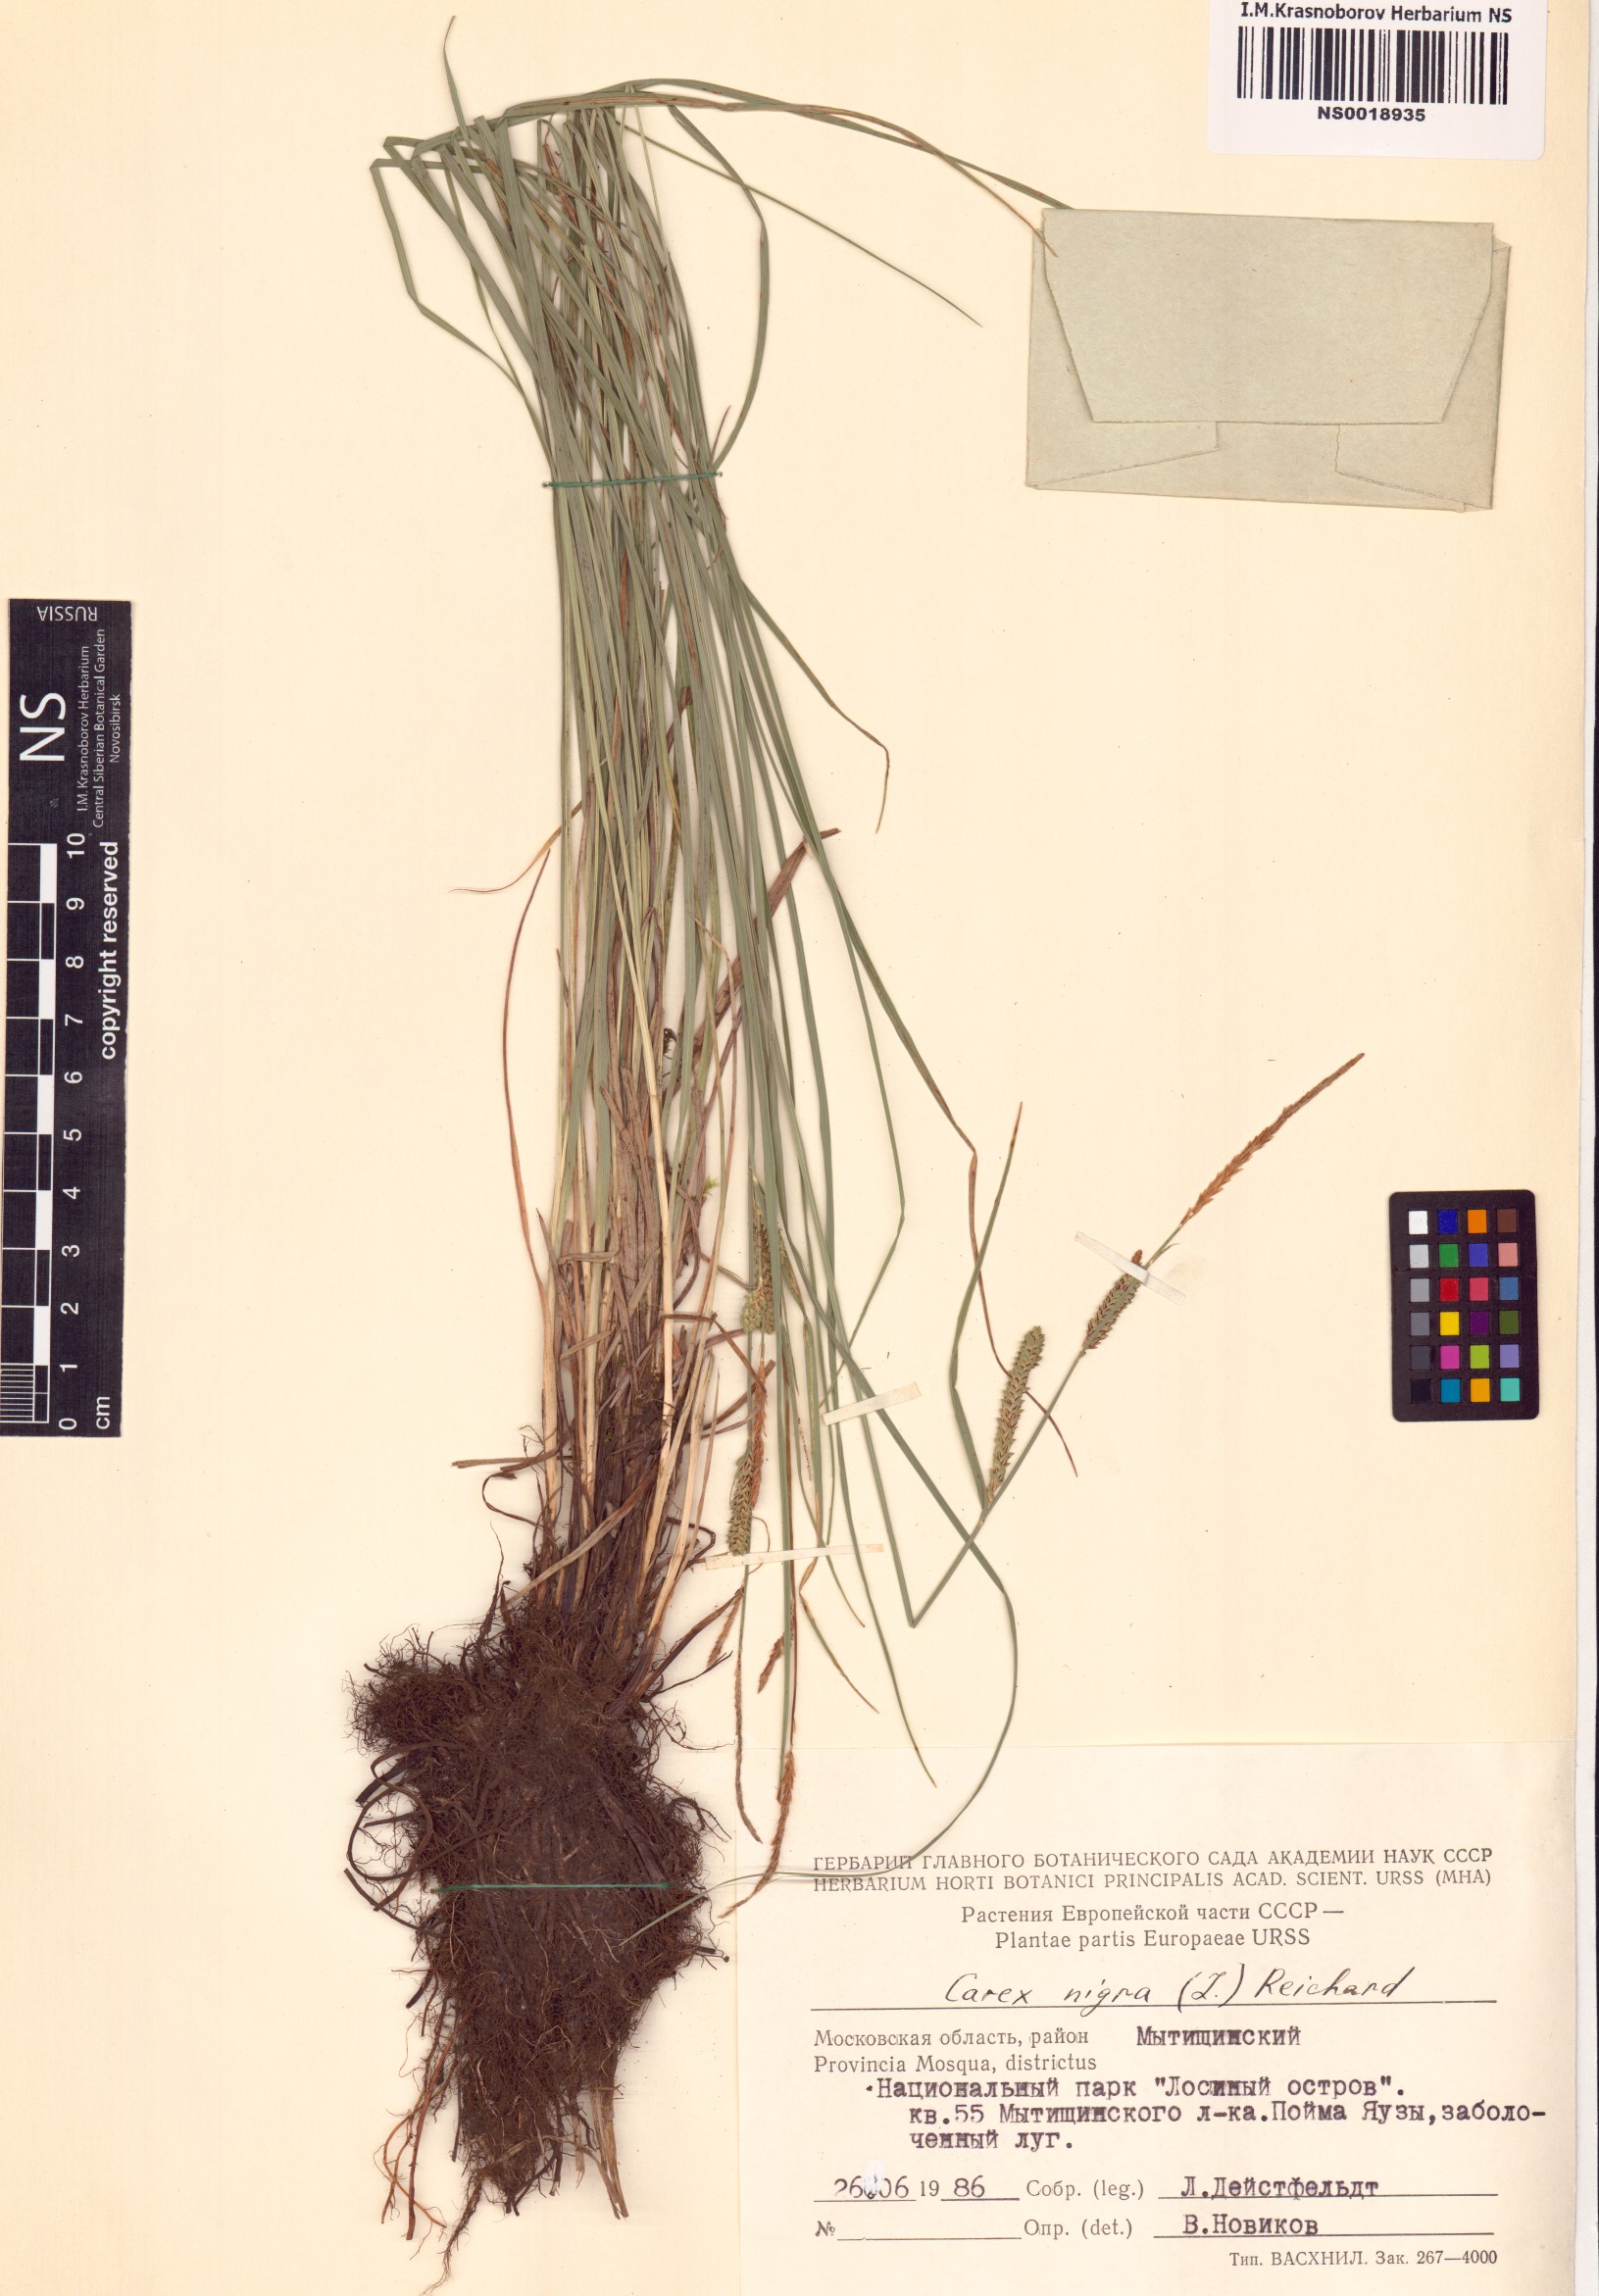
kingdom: Plantae
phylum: Tracheophyta
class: Liliopsida
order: Poales
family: Cyperaceae
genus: Carex
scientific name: Carex nigra
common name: Common sedge
